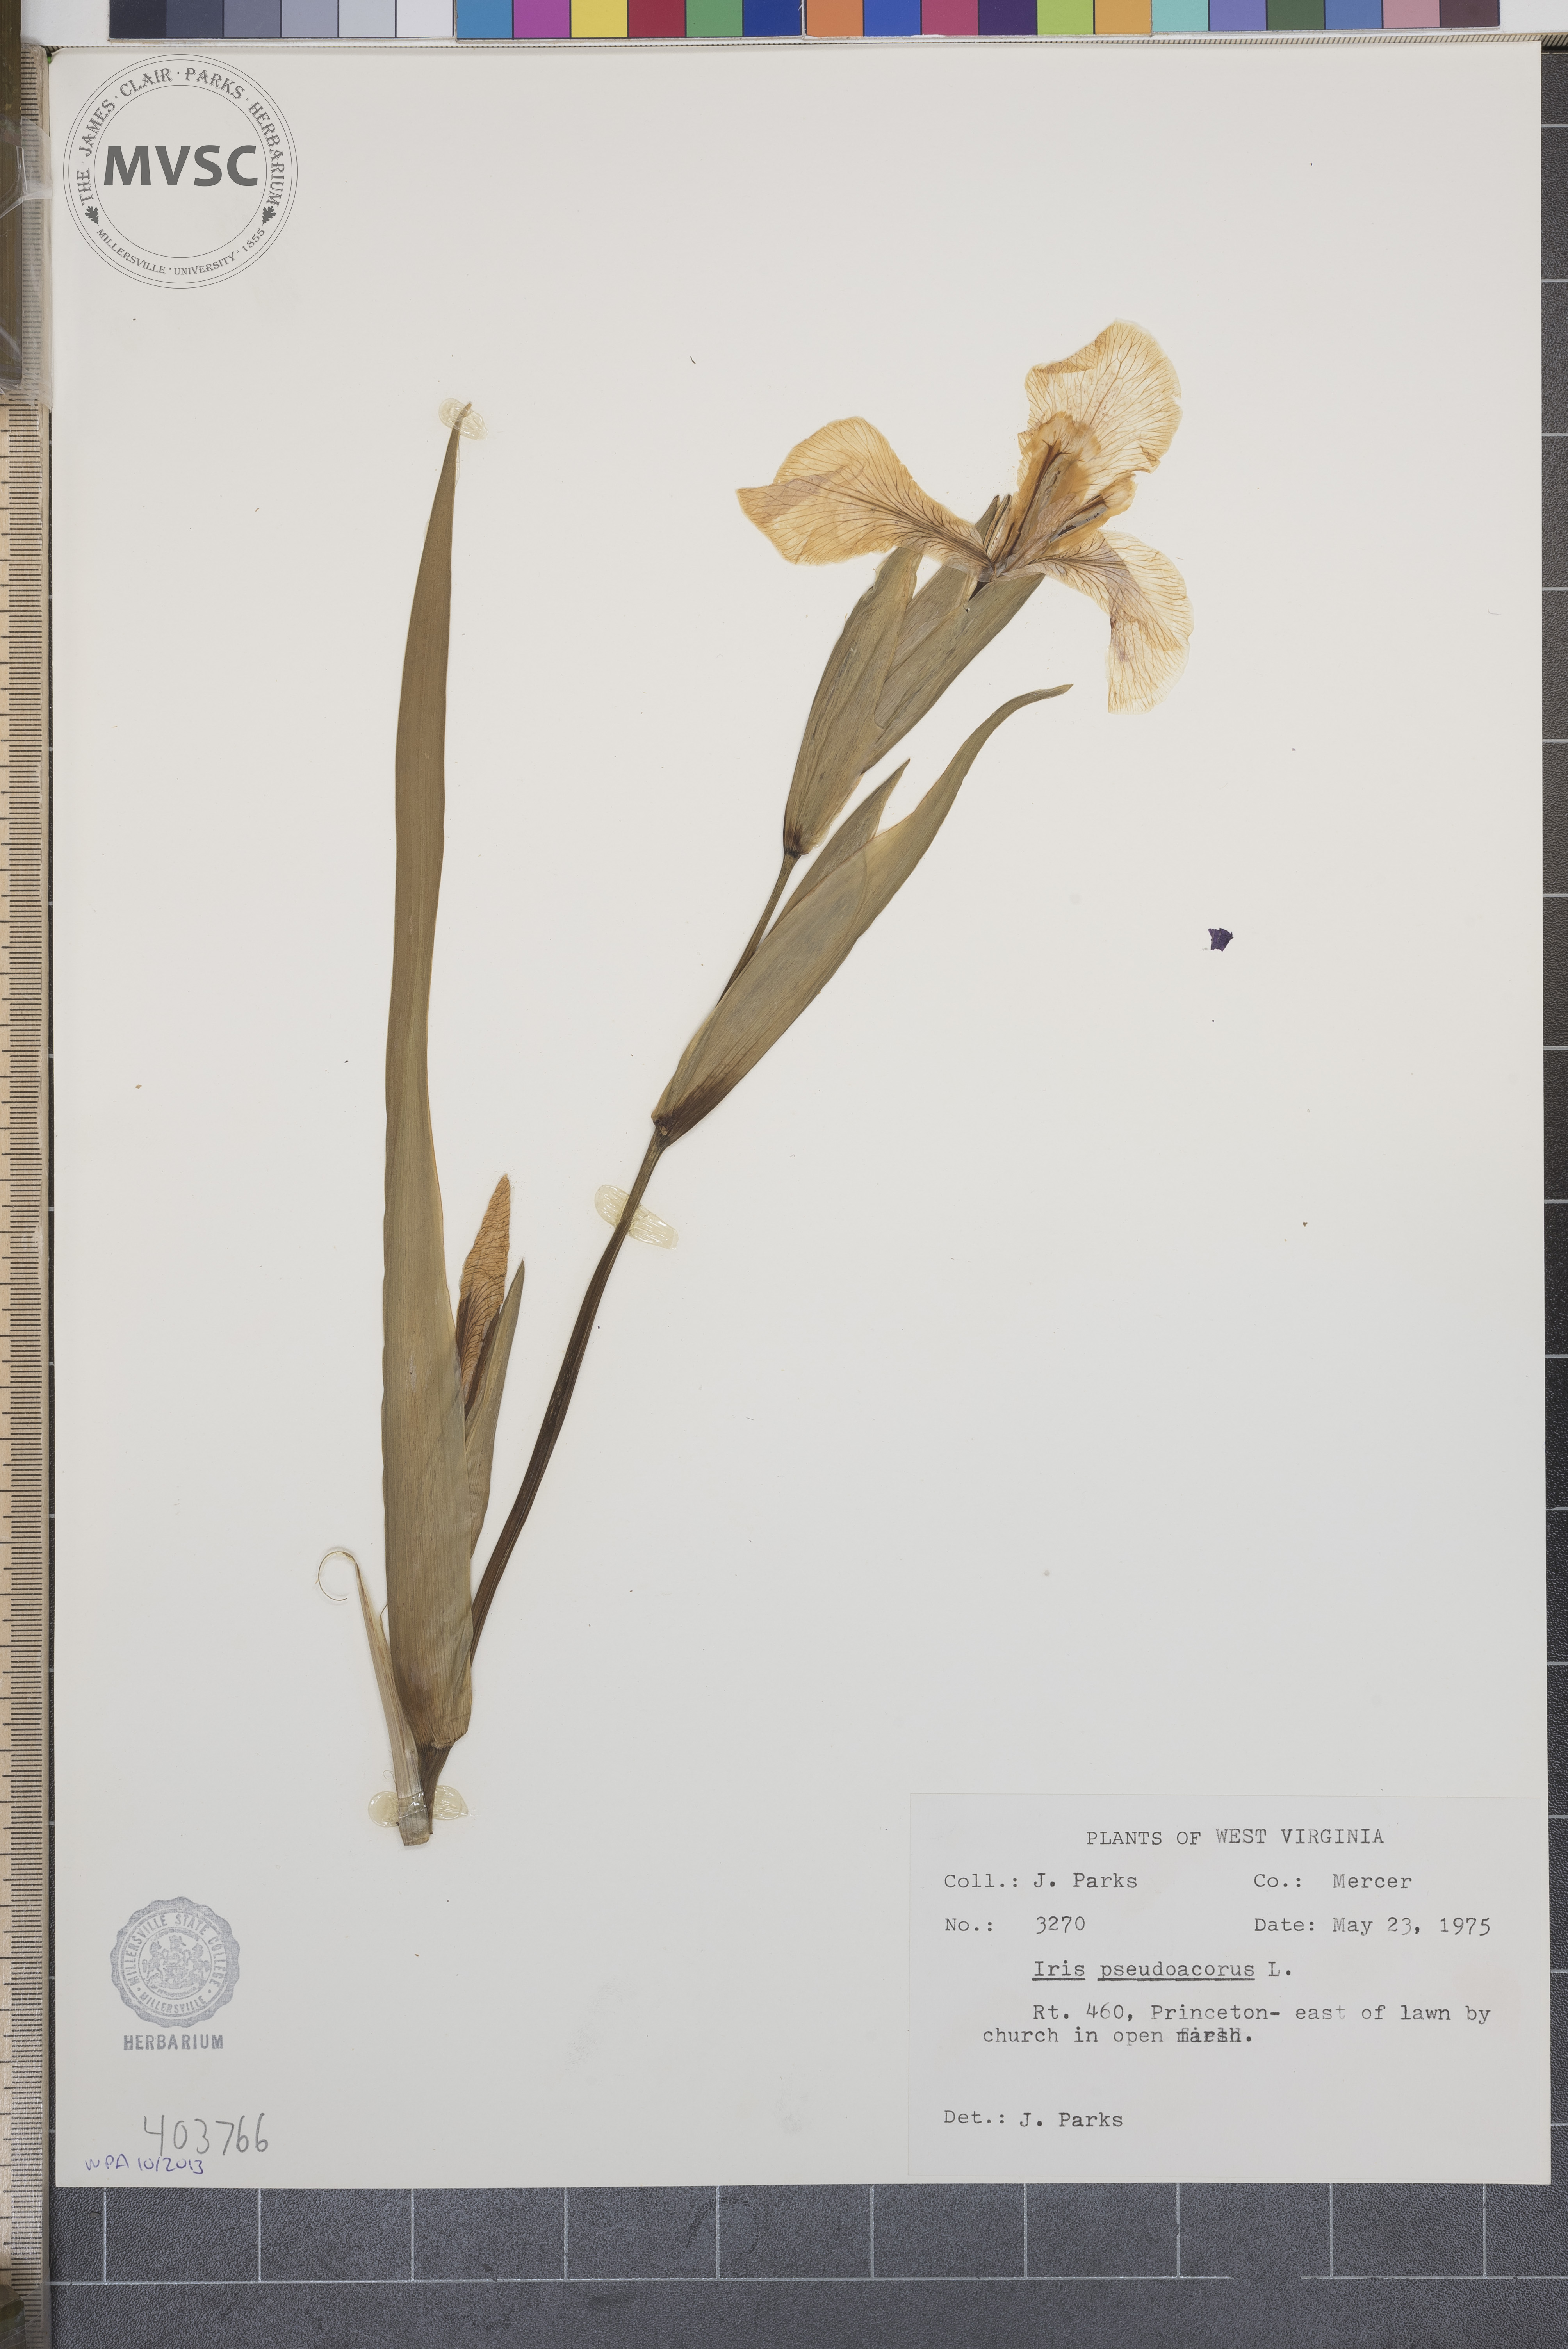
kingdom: Plantae
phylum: Tracheophyta
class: Liliopsida
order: Asparagales
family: Iridaceae
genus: Iris
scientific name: Iris pseudacorus
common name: Yellow flag
